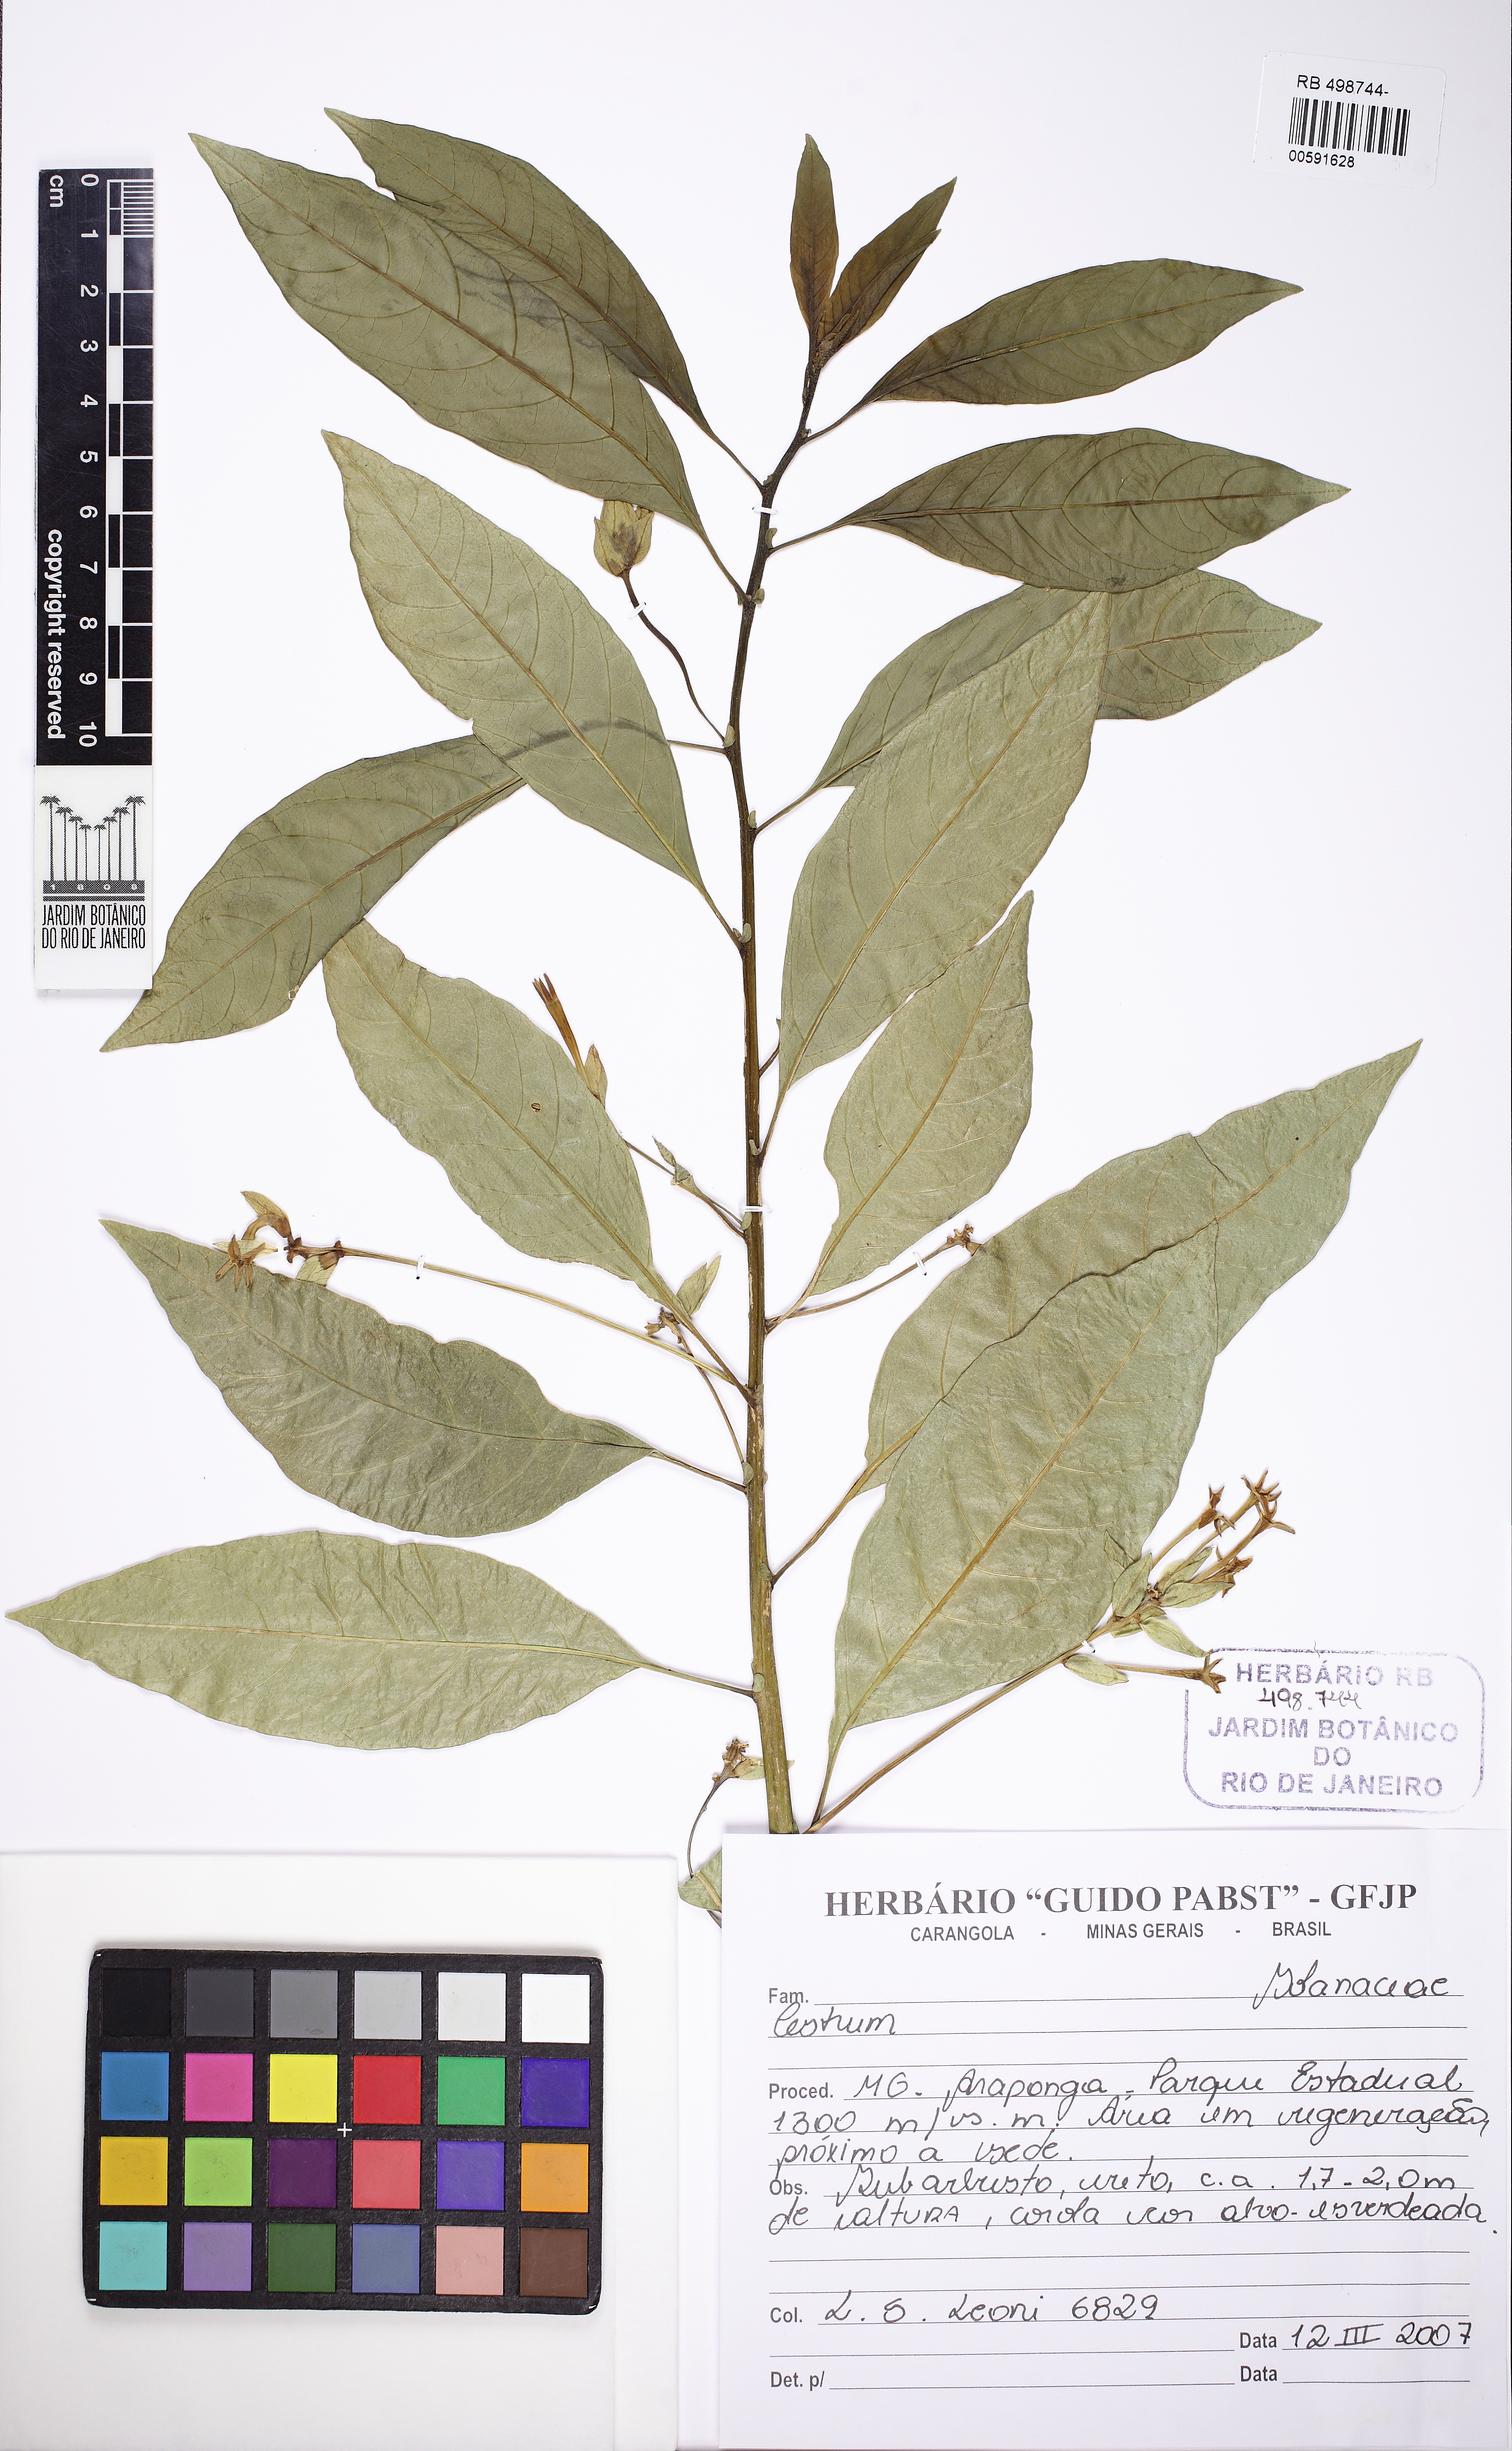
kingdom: Plantae
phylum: Tracheophyta
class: Magnoliopsida
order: Solanales
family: Solanaceae
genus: Cestrum
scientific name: Cestrum
